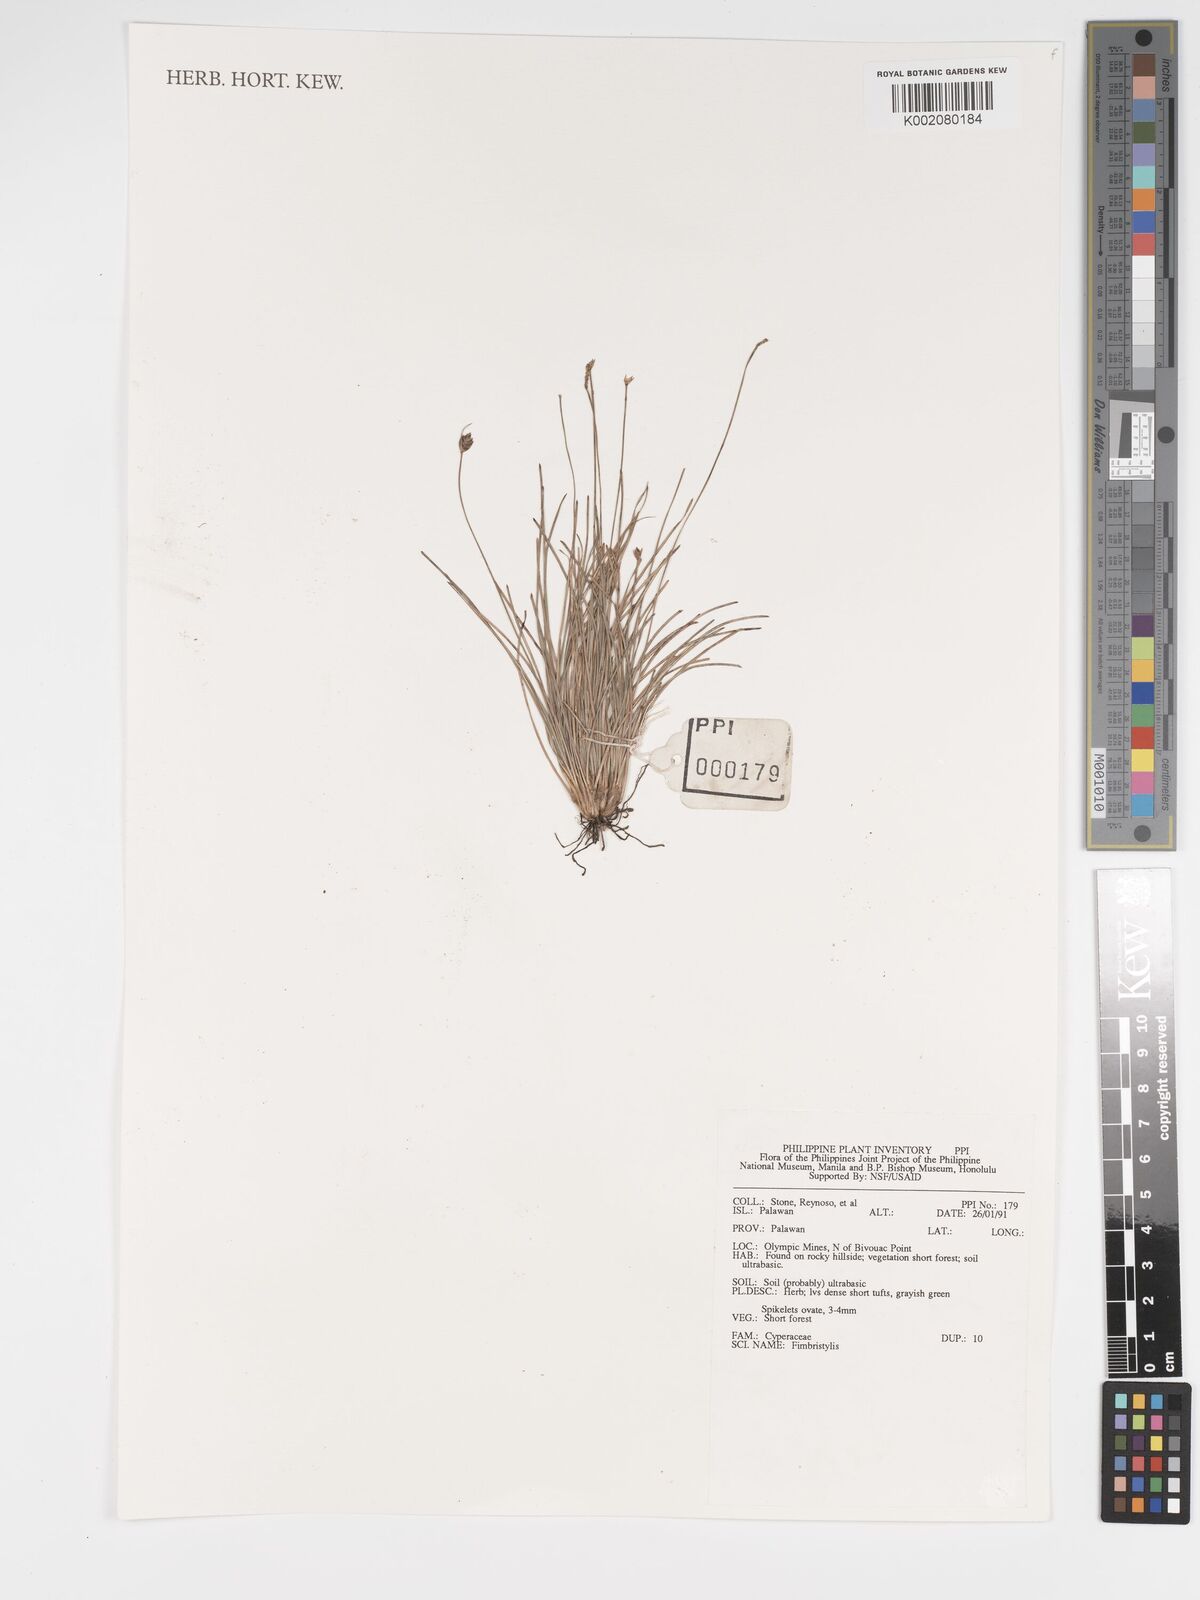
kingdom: Plantae
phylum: Tracheophyta
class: Liliopsida
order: Poales
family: Cyperaceae
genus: Fimbristylis
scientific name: Fimbristylis
